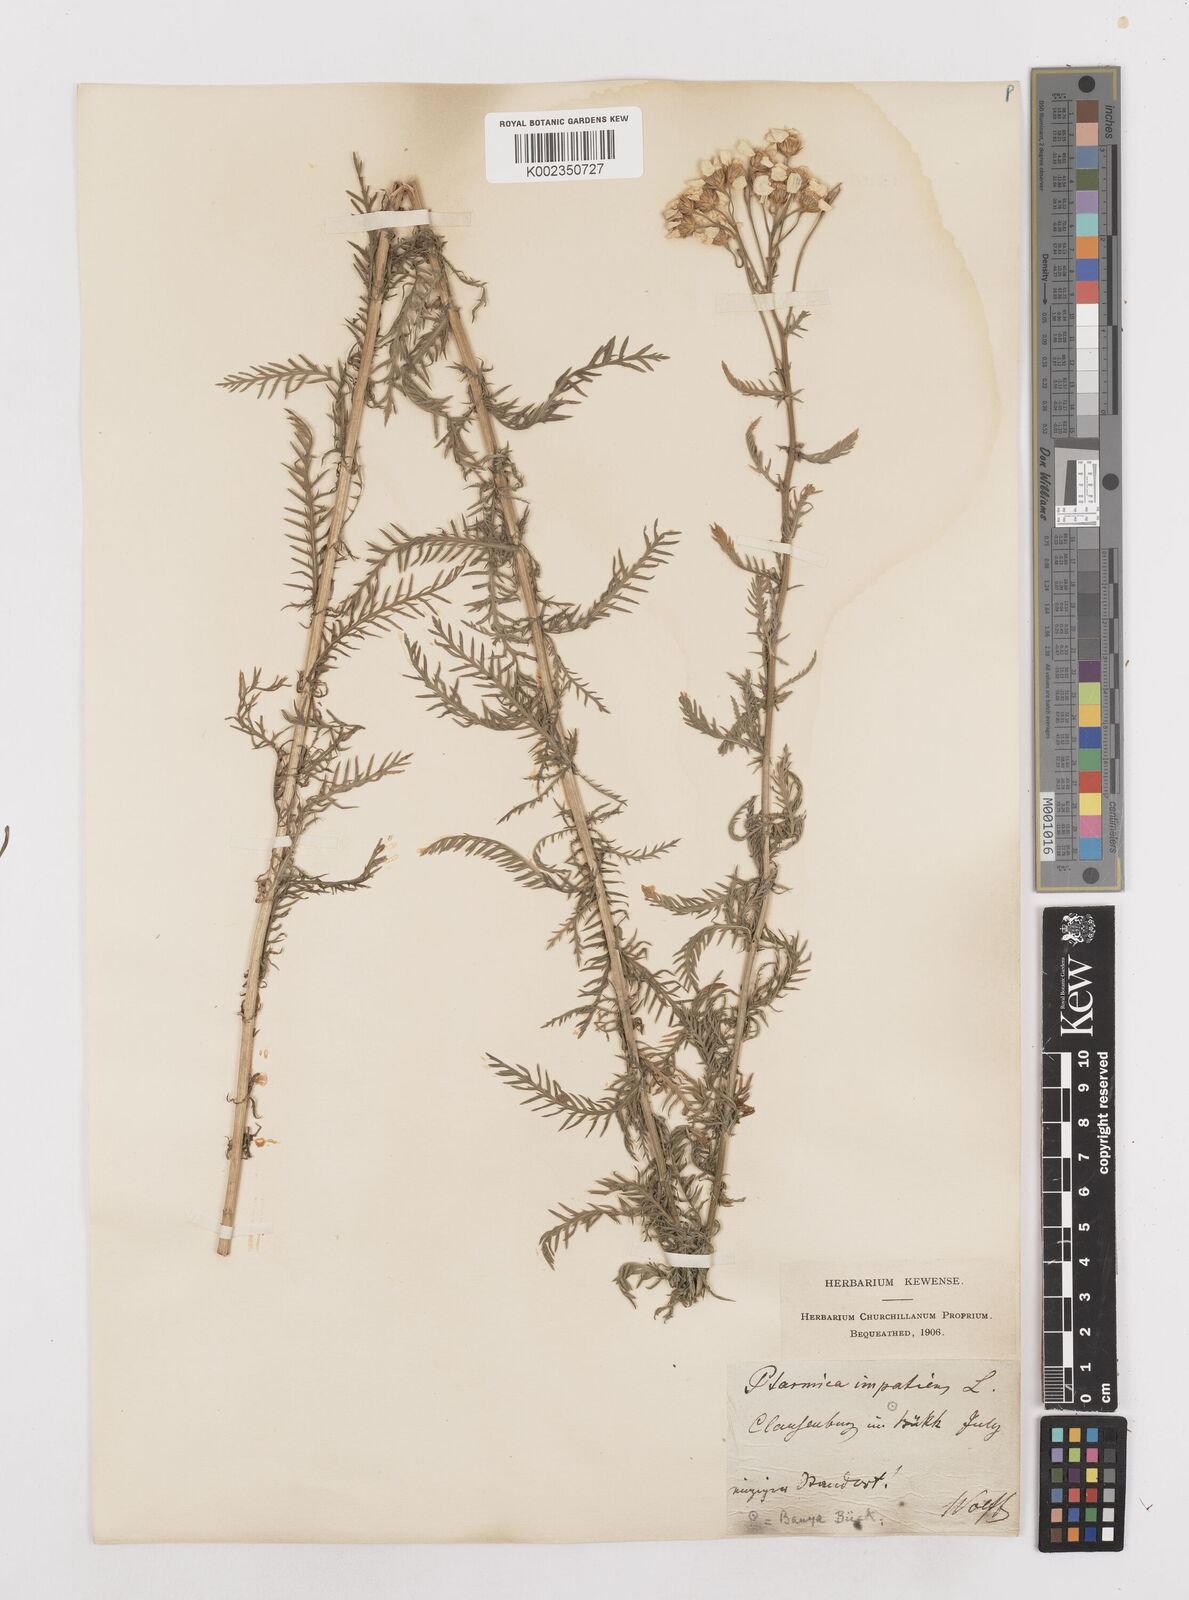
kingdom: Plantae
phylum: Tracheophyta
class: Magnoliopsida
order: Asterales
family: Asteraceae
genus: Achillea
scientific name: Achillea impatiens
